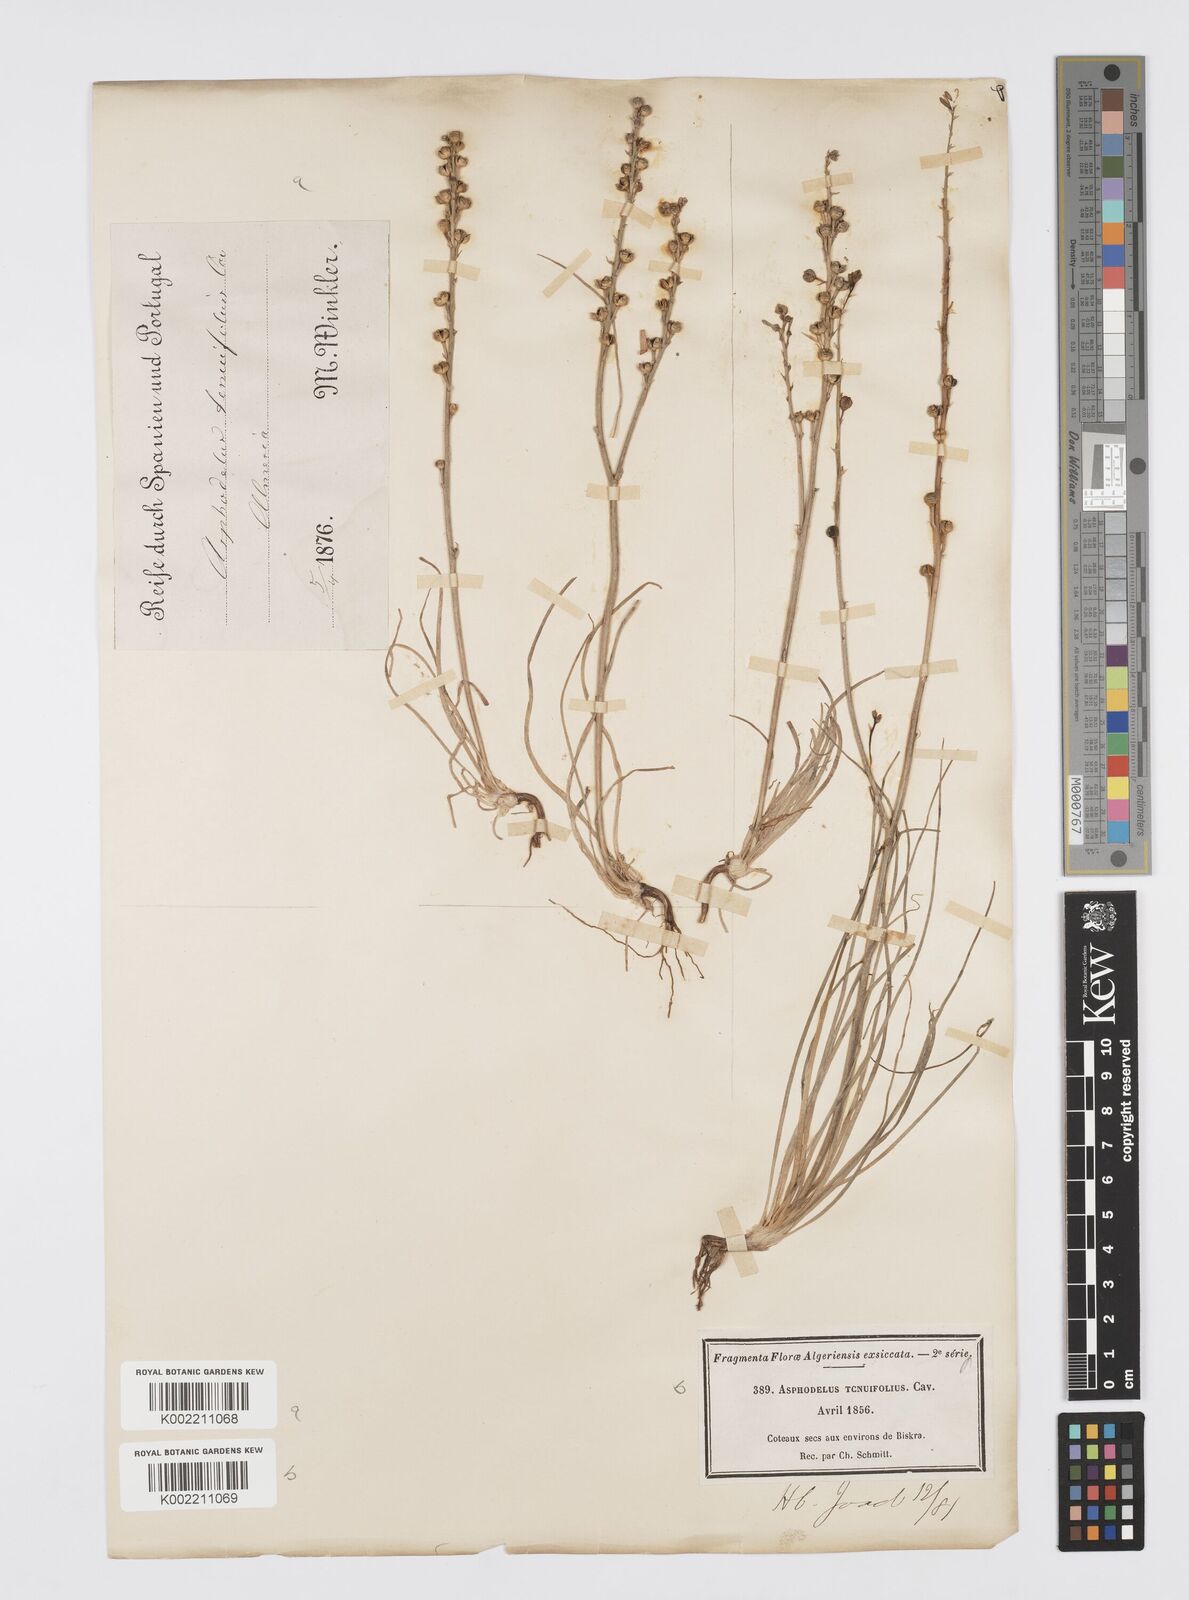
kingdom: Plantae
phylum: Tracheophyta
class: Liliopsida
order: Asparagales
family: Asphodelaceae
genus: Asphodelus
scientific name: Asphodelus tenuifolius
